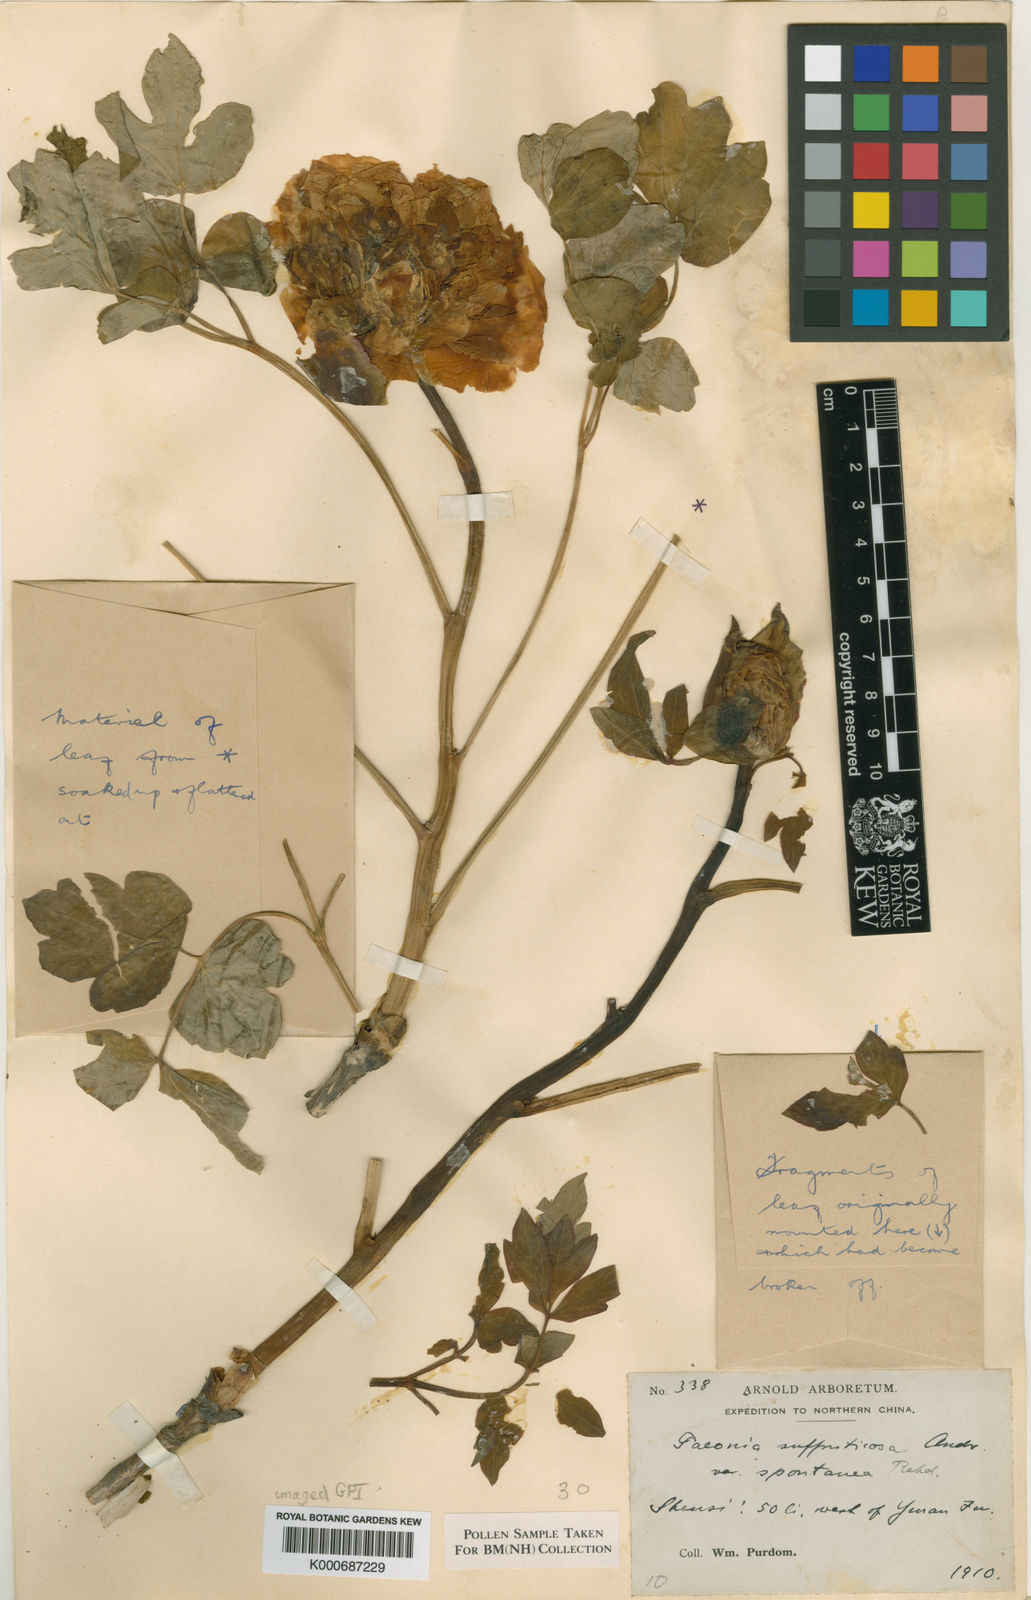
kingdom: Plantae
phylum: Tracheophyta
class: Magnoliopsida
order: Saxifragales
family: Paeoniaceae
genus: Paeonia
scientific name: Paeonia jishanensis
